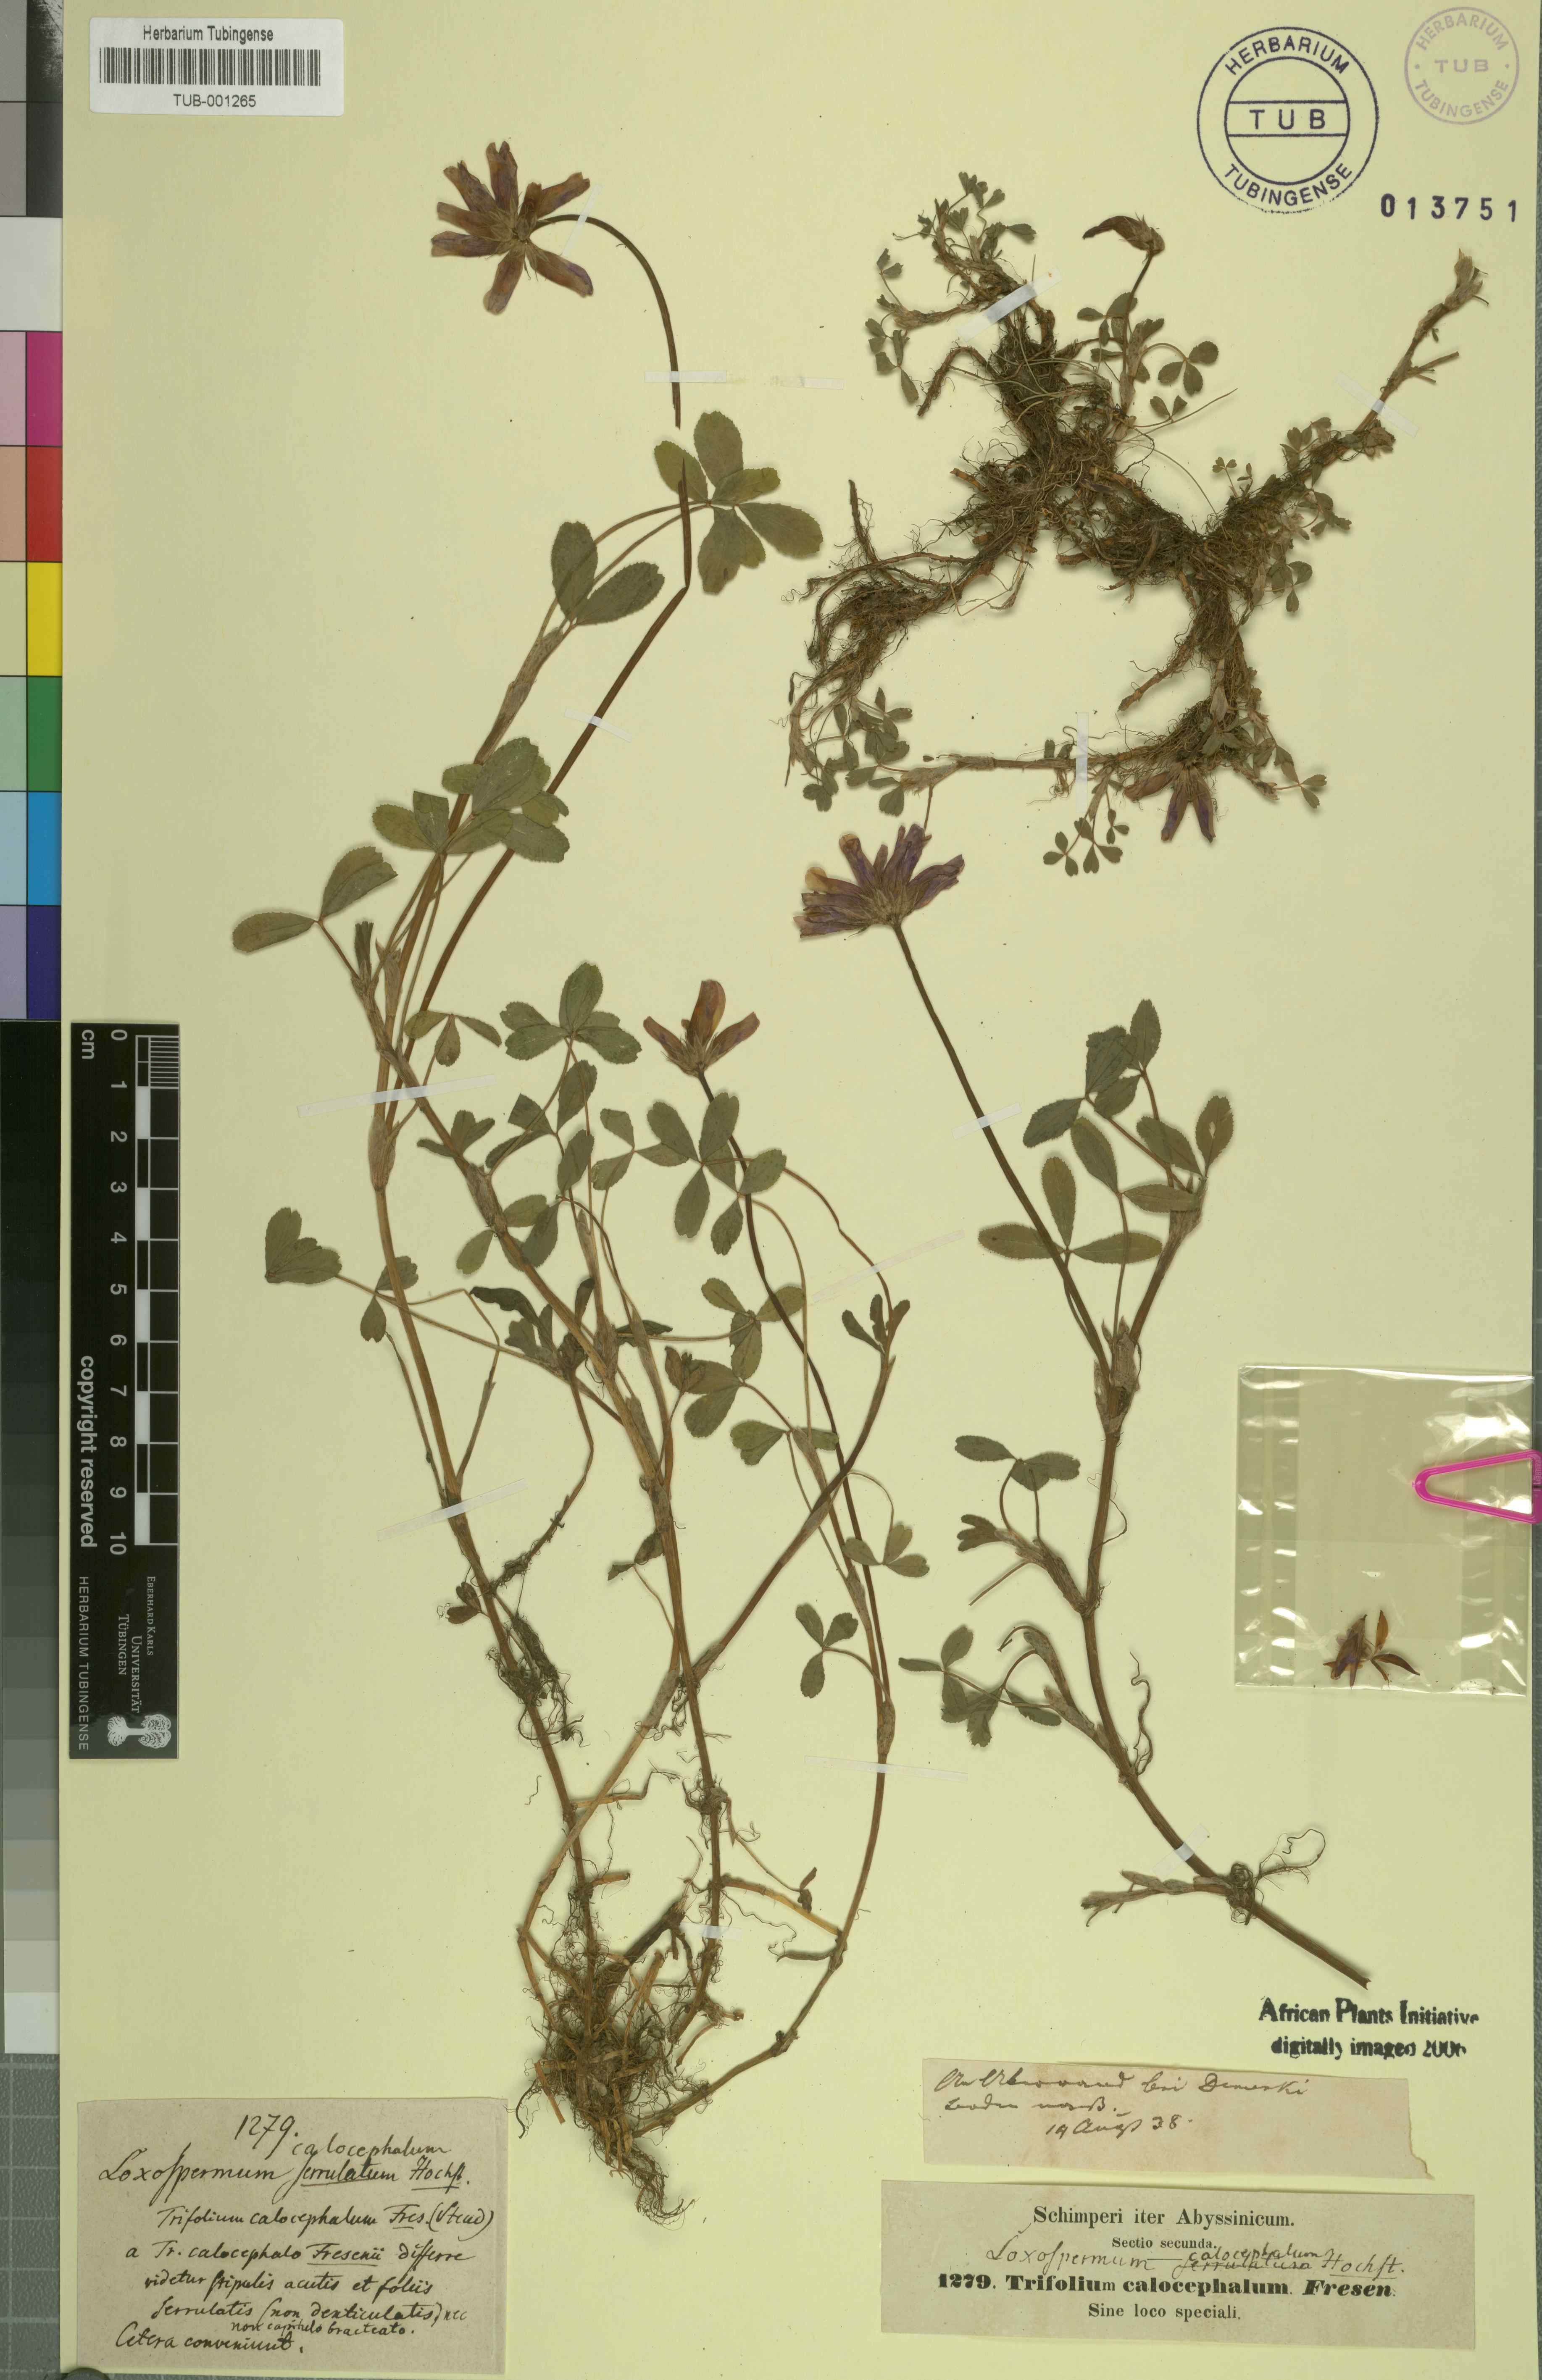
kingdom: Plantae
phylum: Tracheophyta
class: Magnoliopsida
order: Fabales
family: Fabaceae
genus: Trifolium
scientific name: Trifolium abyssinicum
